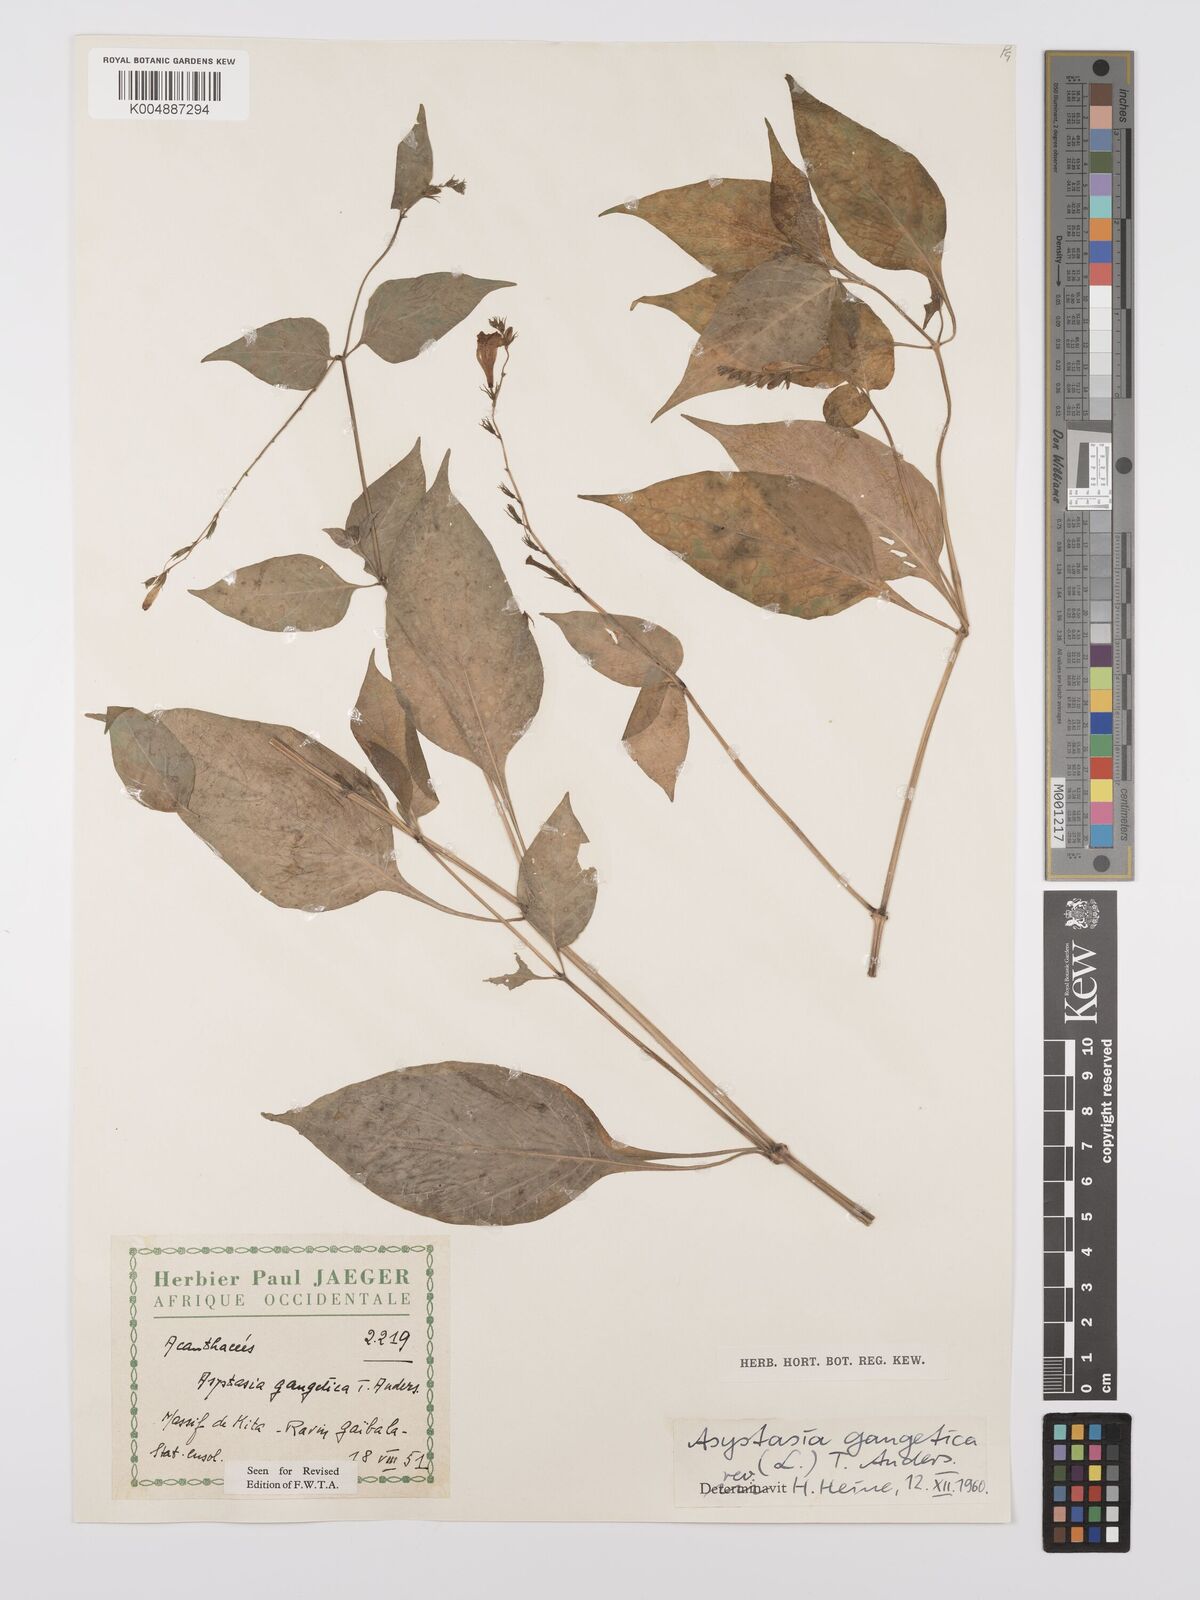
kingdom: Plantae
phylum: Tracheophyta
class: Magnoliopsida
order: Lamiales
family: Acanthaceae
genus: Asystasia
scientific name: Asystasia gangetica
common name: Chinese violet
